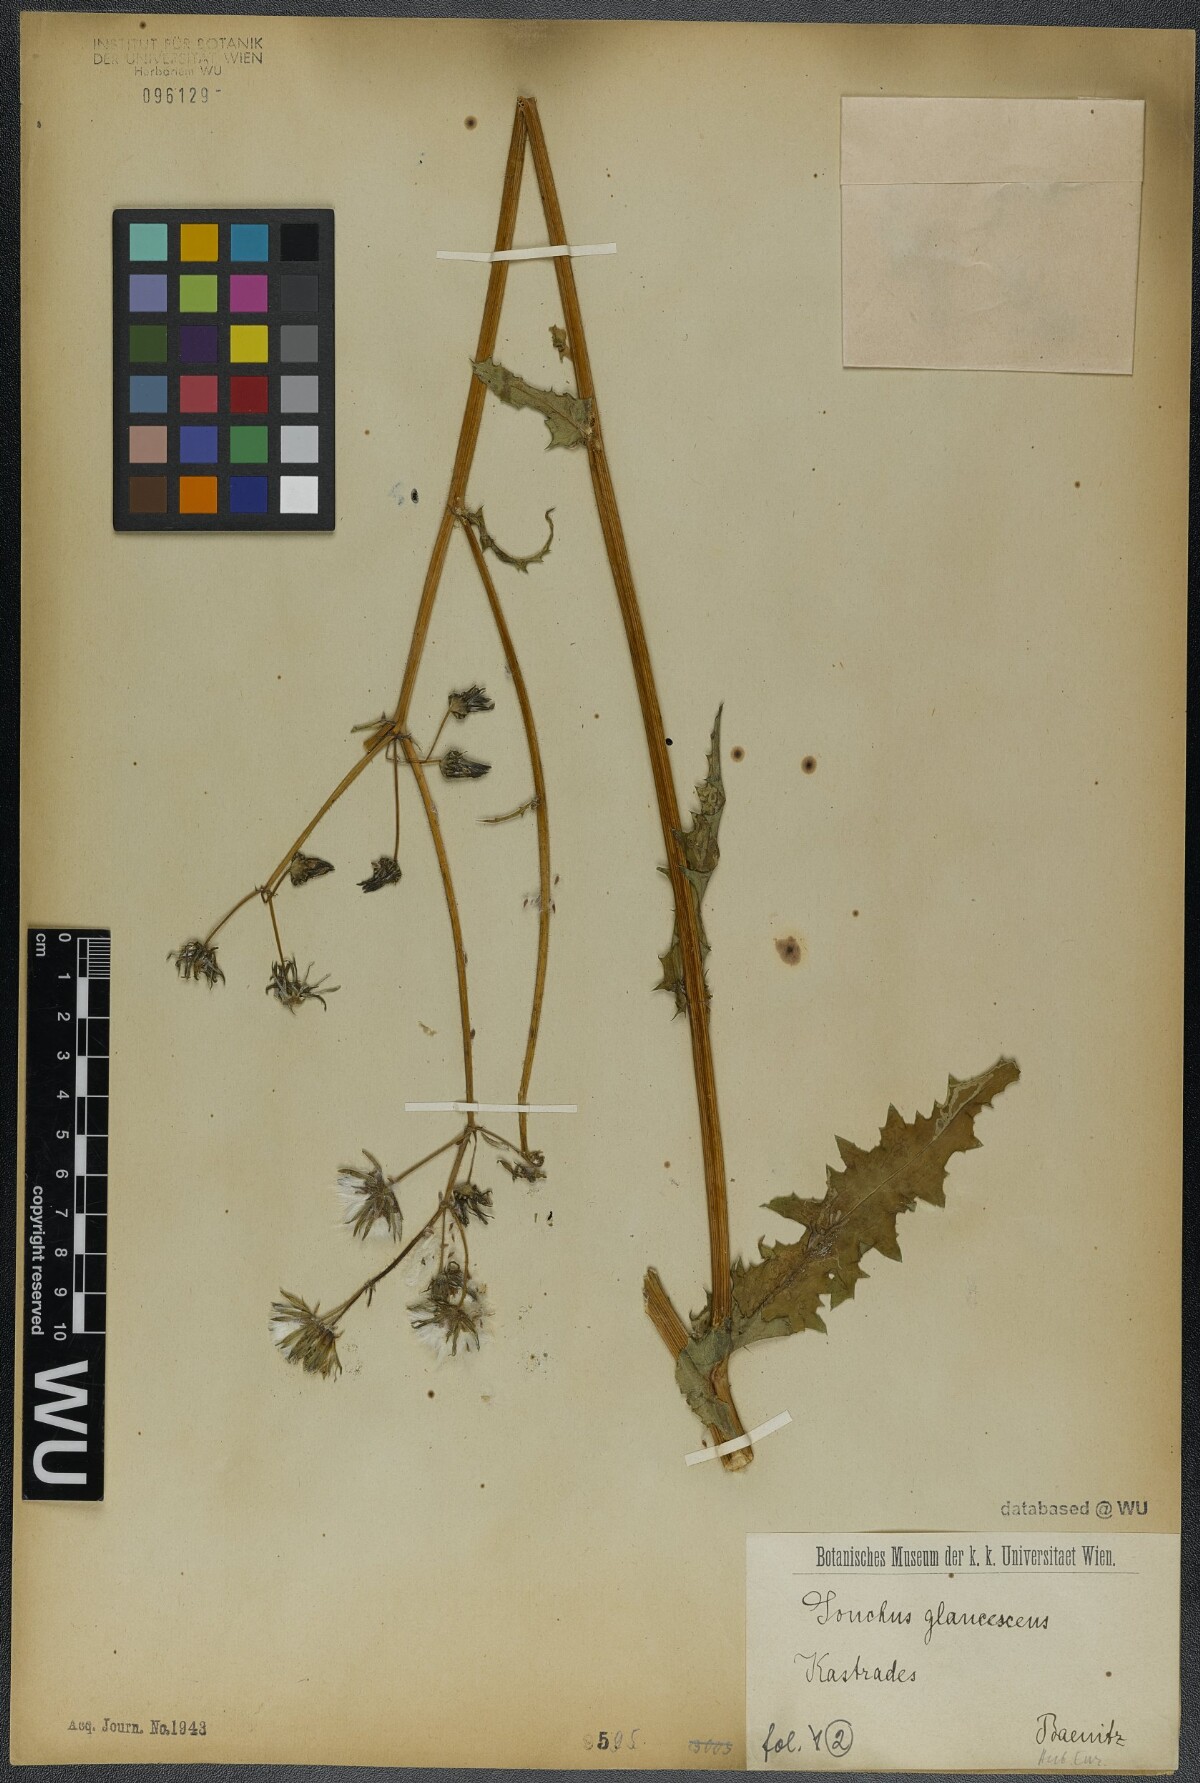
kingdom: Plantae
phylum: Tracheophyta
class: Magnoliopsida
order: Asterales
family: Asteraceae
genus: Sonchus
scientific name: Sonchus asper
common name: Prickly sow-thistle
